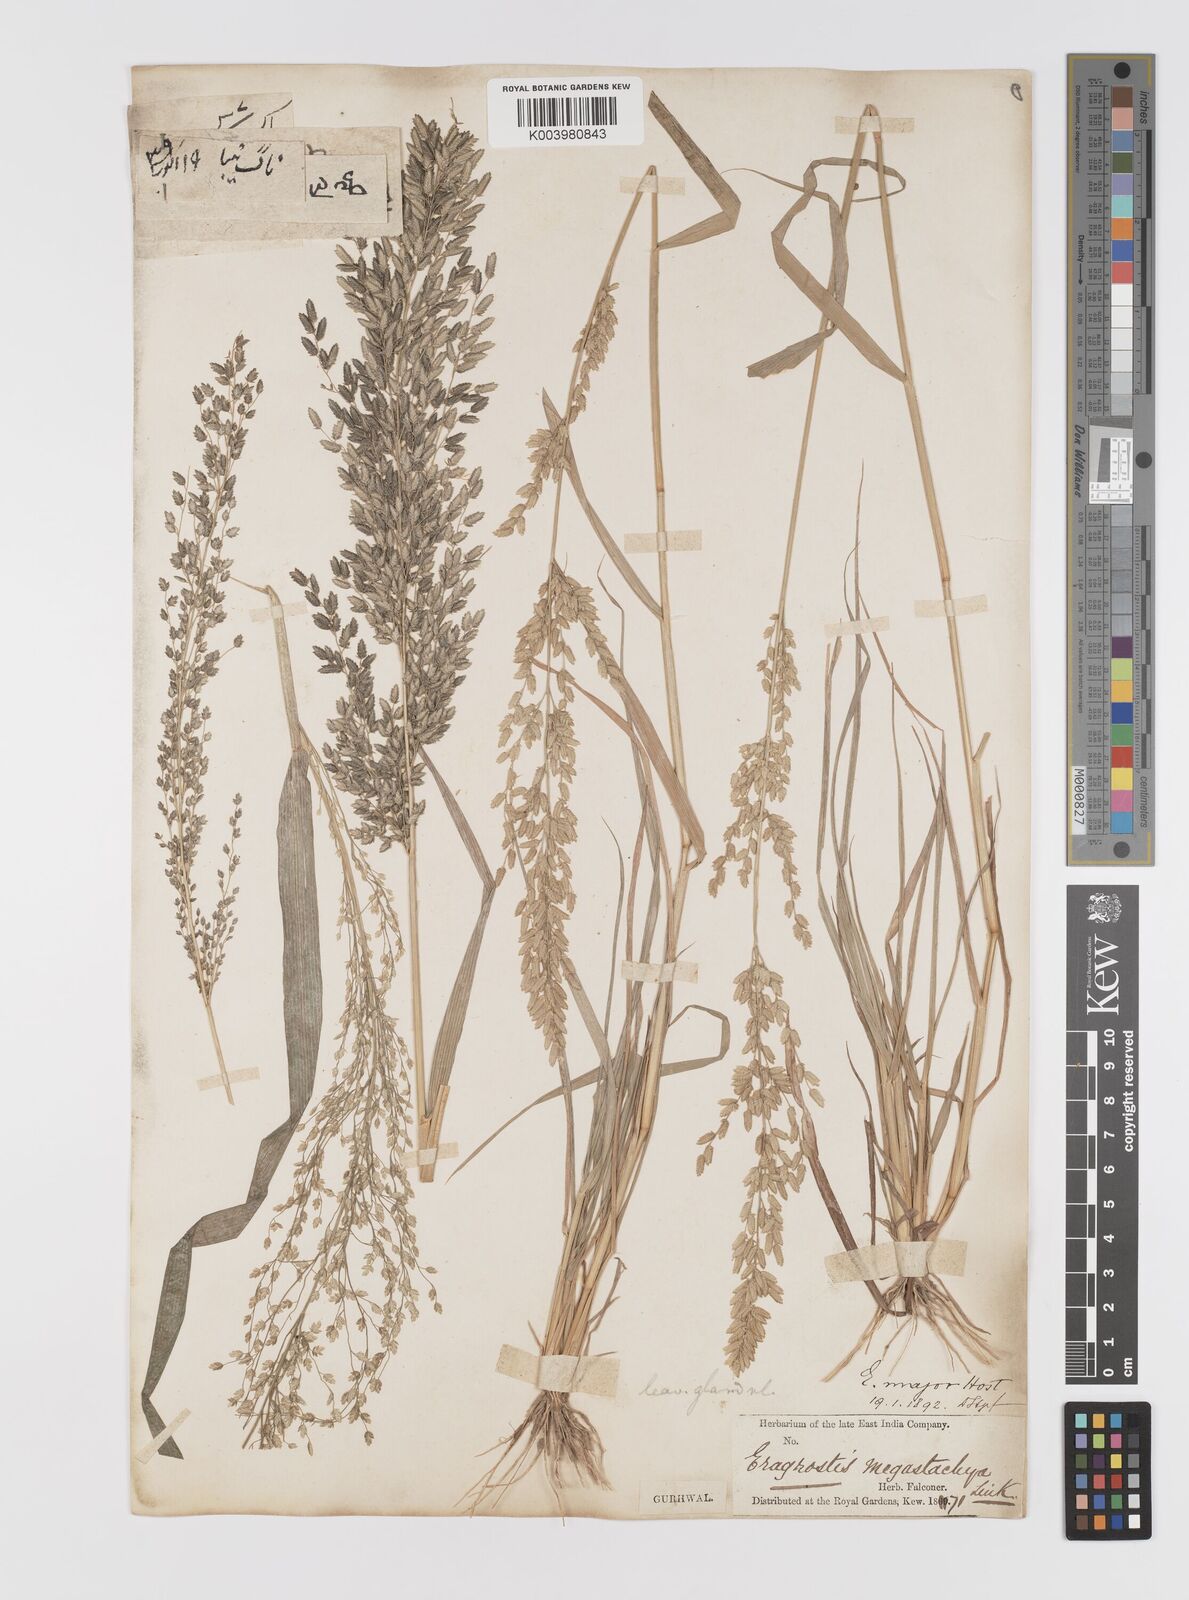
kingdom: Plantae
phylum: Tracheophyta
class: Liliopsida
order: Poales
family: Poaceae
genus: Eragrostis
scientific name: Eragrostis cilianensis
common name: Stinkgrass
